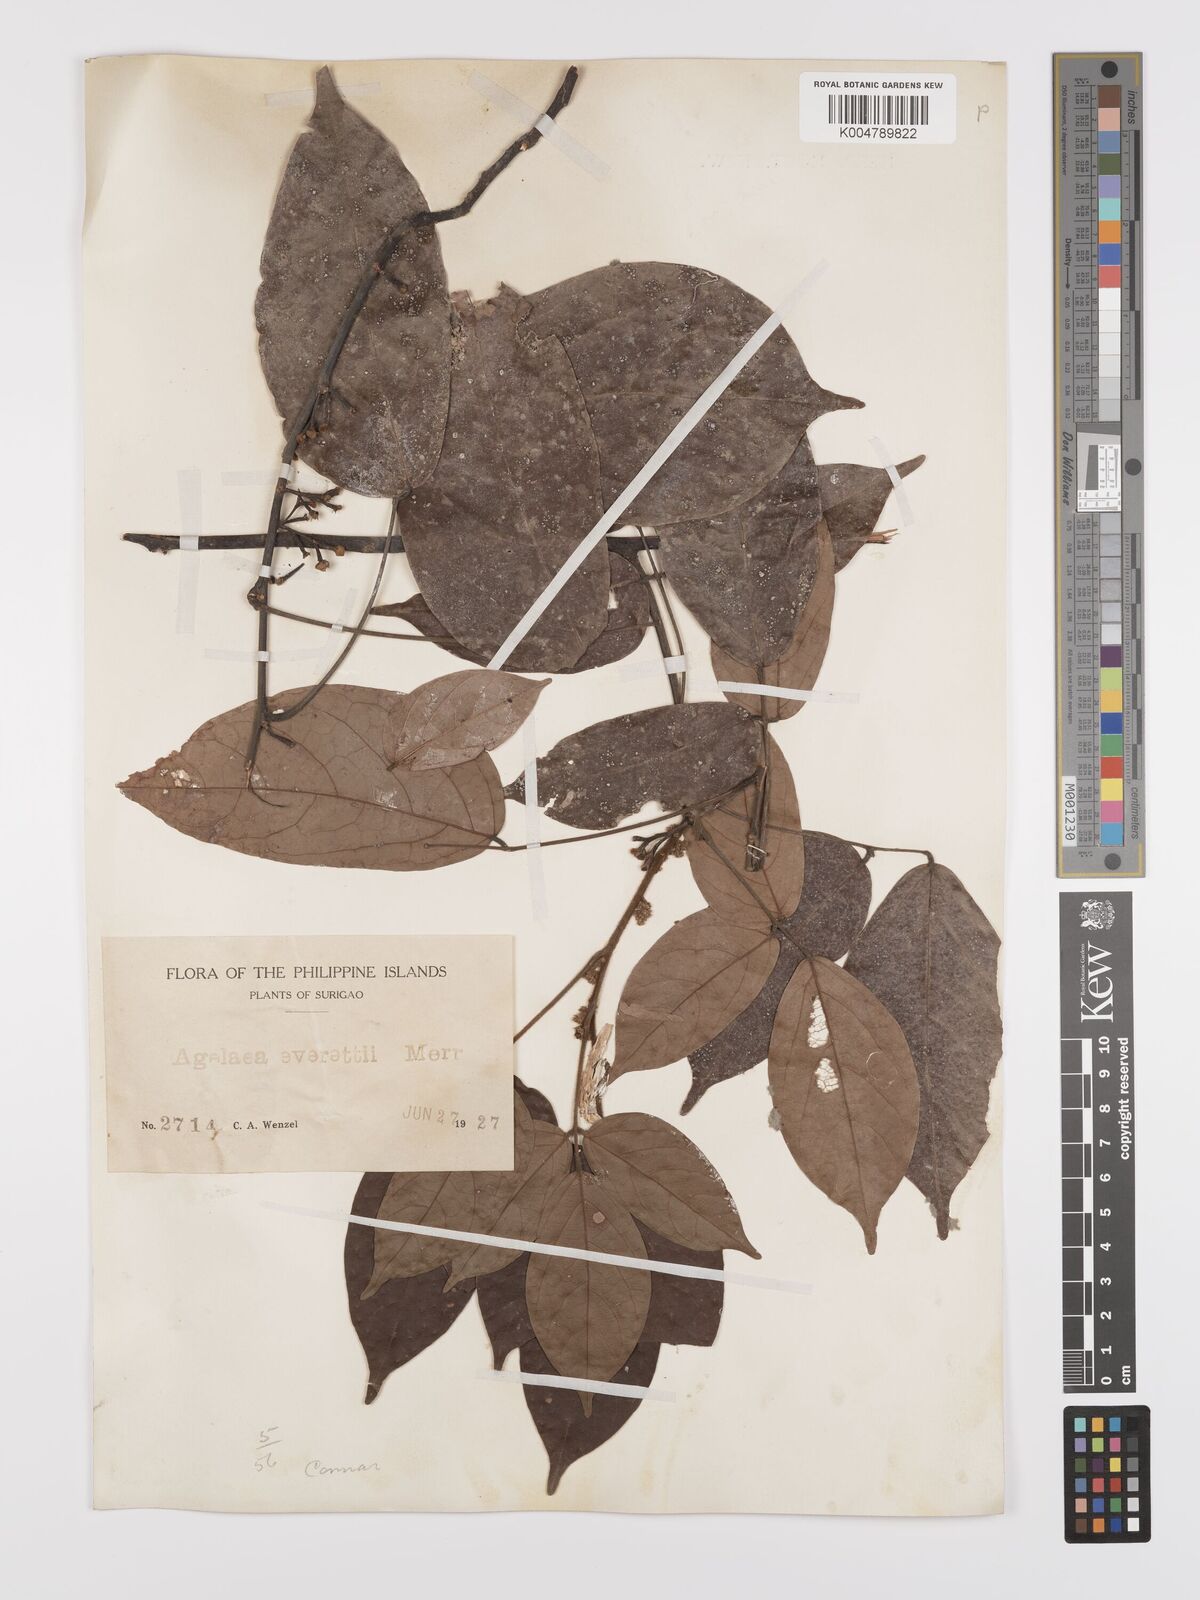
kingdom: Plantae
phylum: Tracheophyta
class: Magnoliopsida
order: Oxalidales
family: Connaraceae
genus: Agelaea
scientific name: Agelaea borneensis
